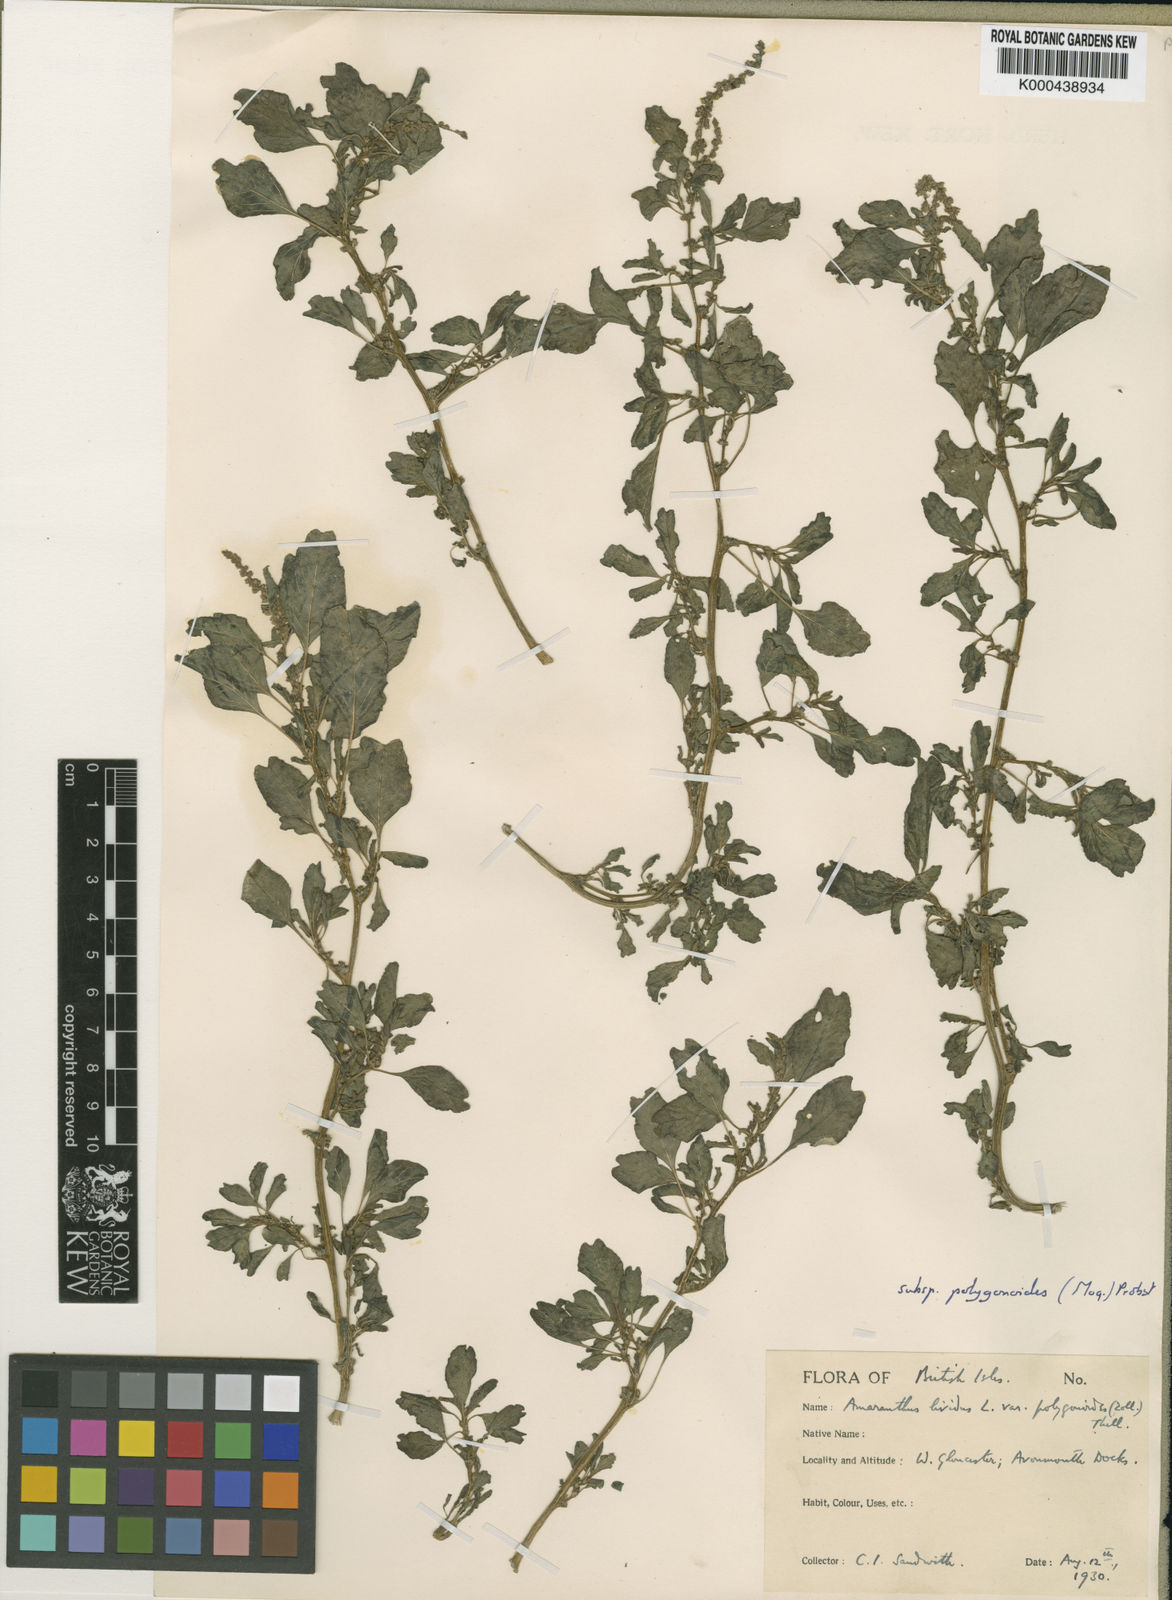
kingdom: Plantae
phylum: Tracheophyta
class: Magnoliopsida
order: Caryophyllales
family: Amaranthaceae
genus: Amaranthus
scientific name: Amaranthus emarginatus
